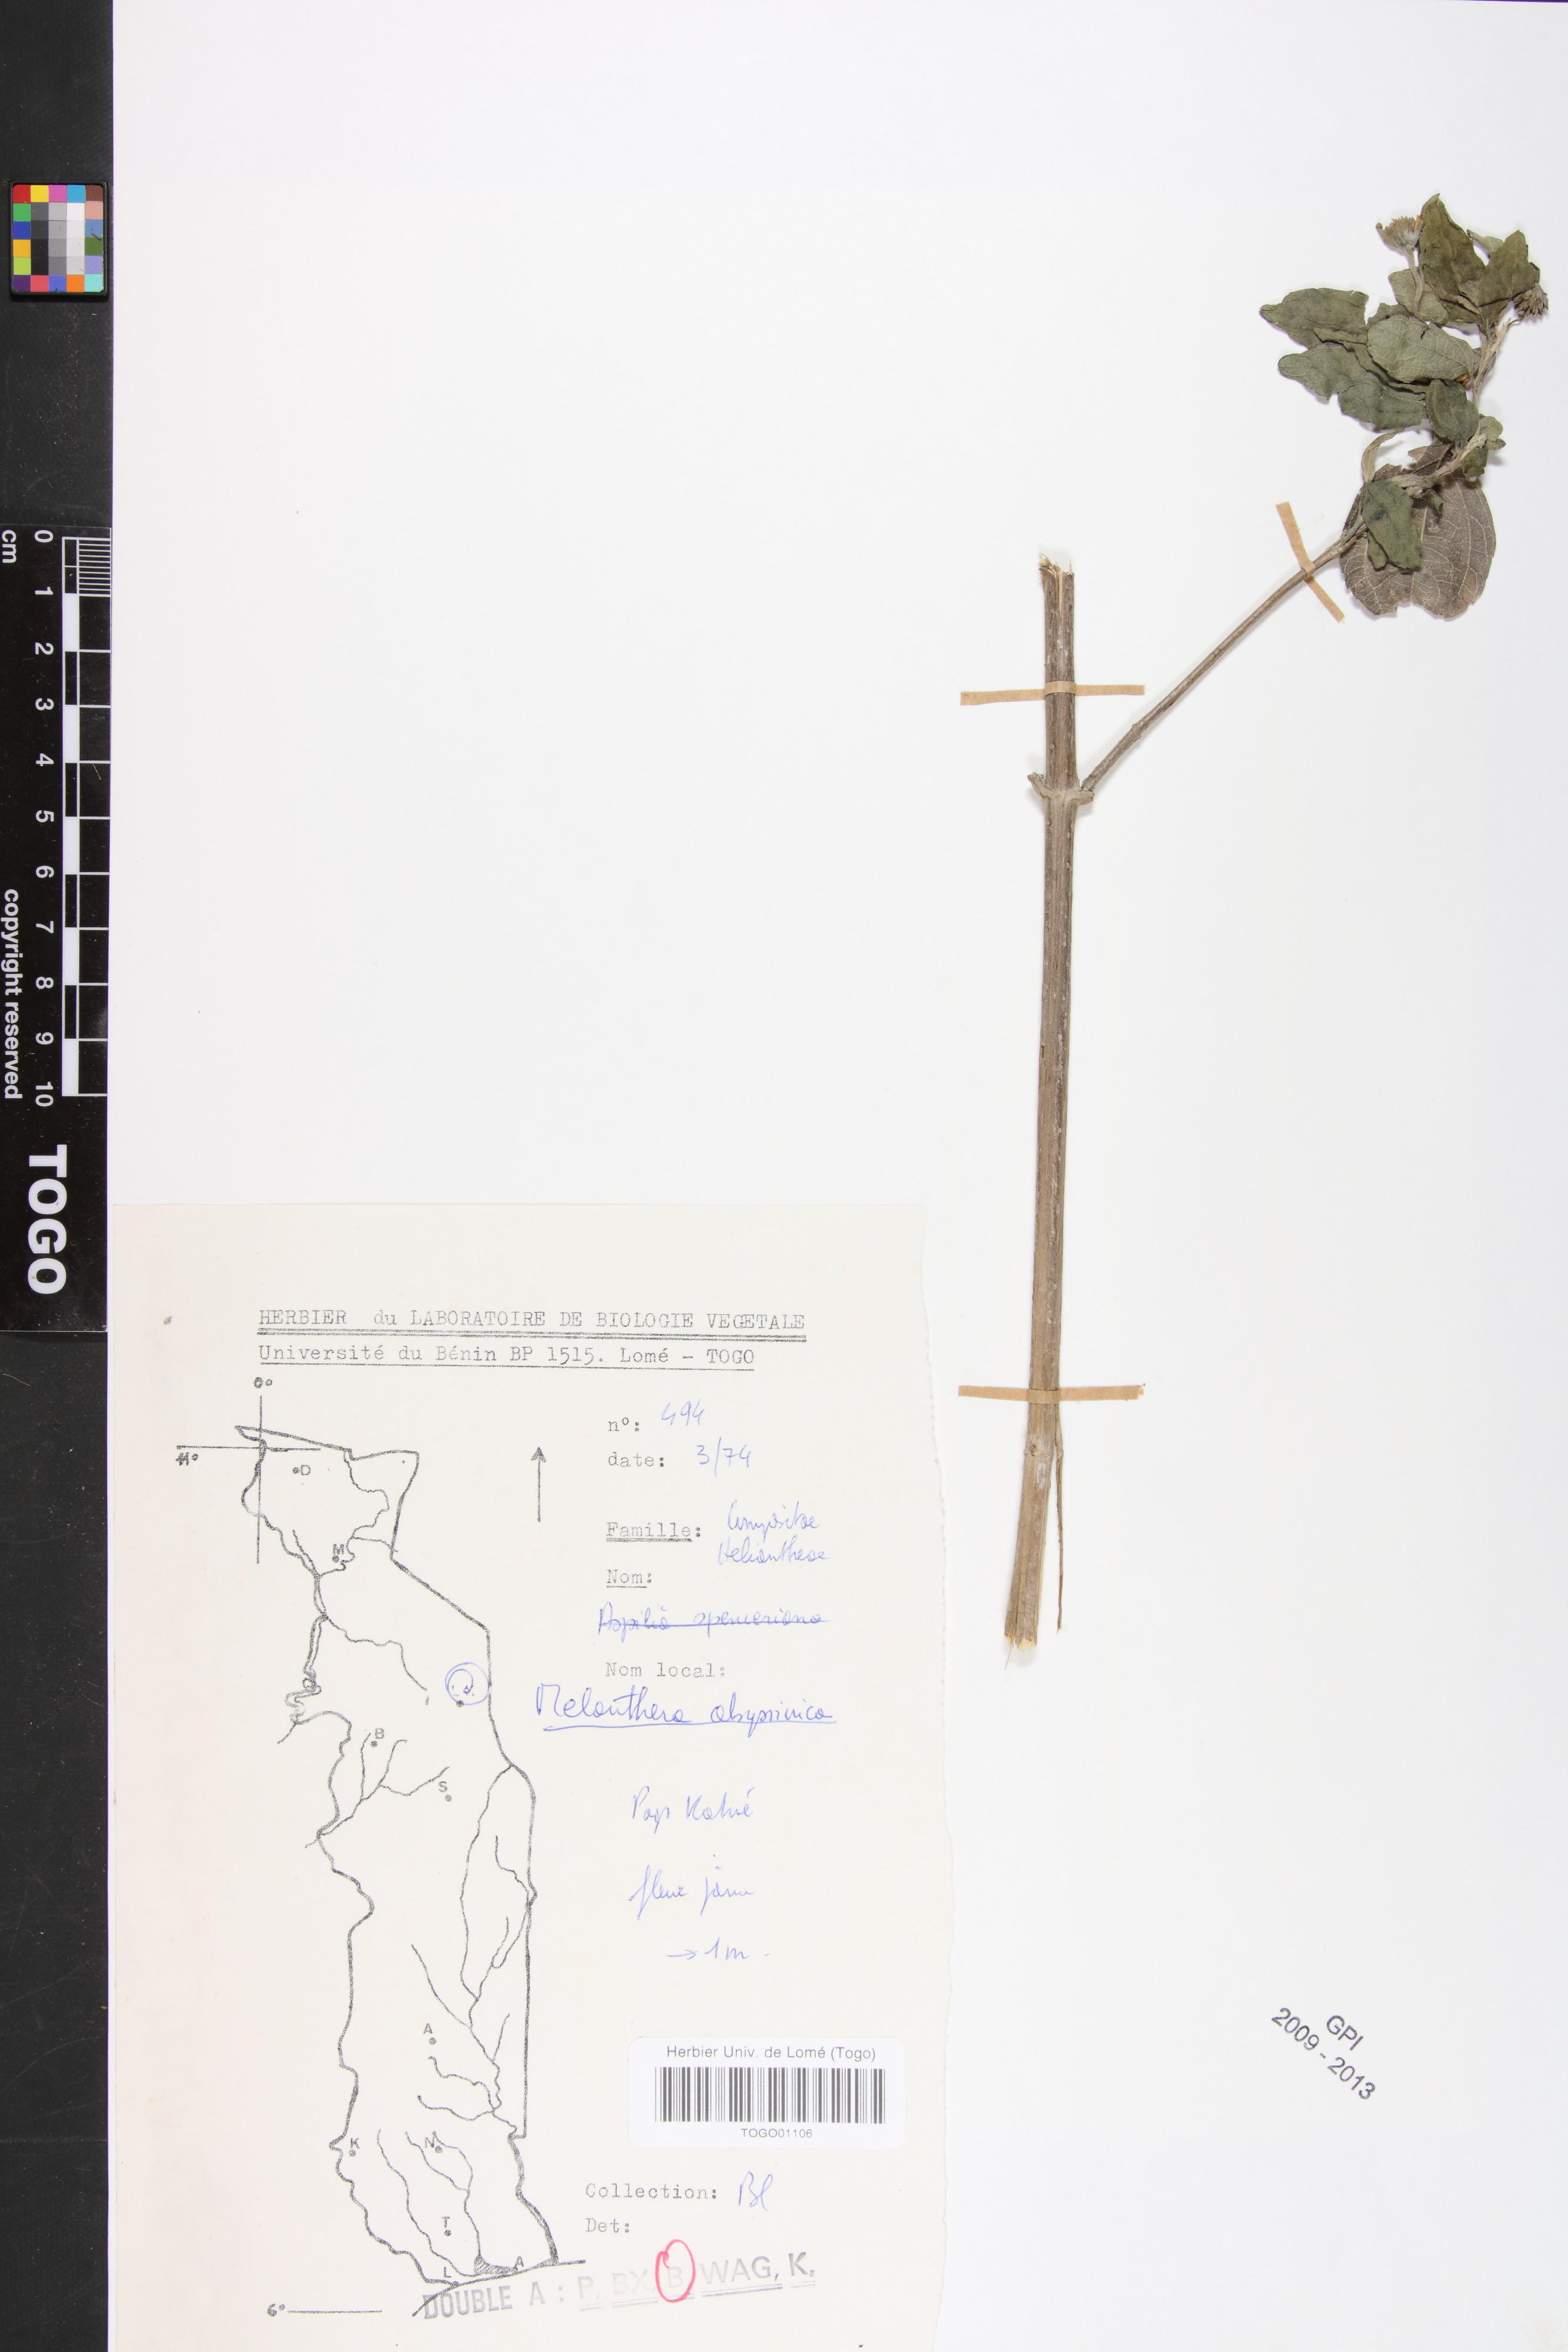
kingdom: Plantae
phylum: Tracheophyta
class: Magnoliopsida
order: Asterales
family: Asteraceae
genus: Lipotriche
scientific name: Lipotriche abyssinica
